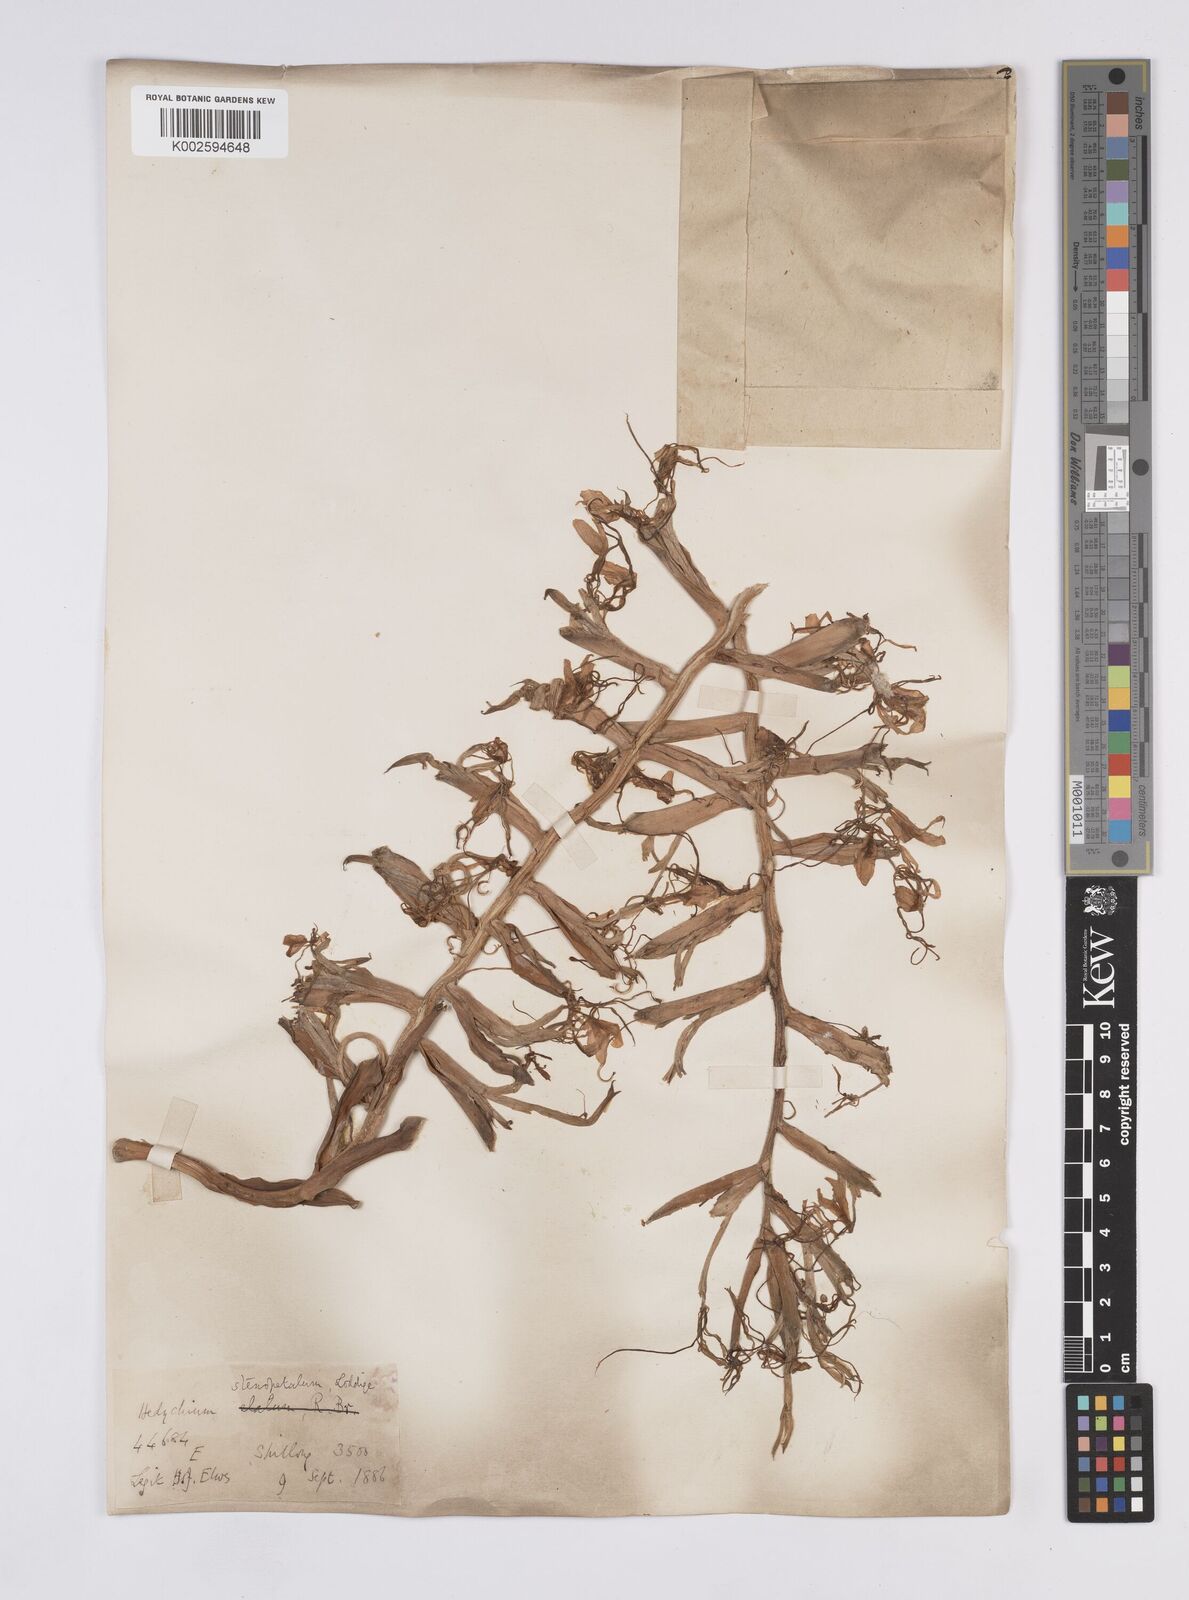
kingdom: Plantae
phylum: Tracheophyta
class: Liliopsida
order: Zingiberales
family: Zingiberaceae
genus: Hedychium
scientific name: Hedychium stenopetalum
